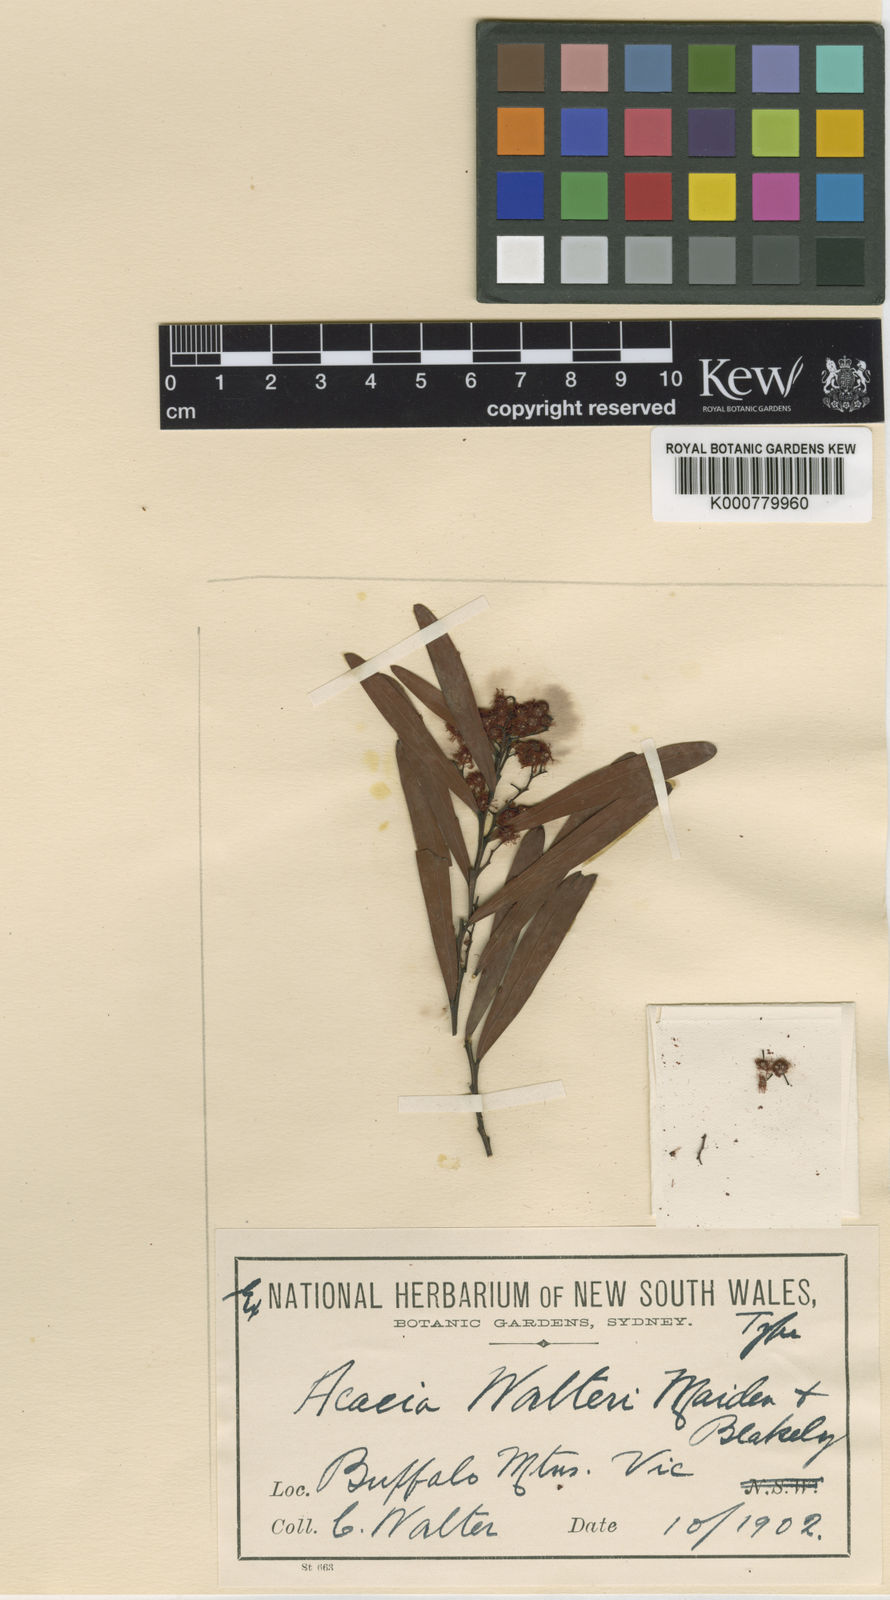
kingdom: Plantae
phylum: Tracheophyta
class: Magnoliopsida
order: Fabales
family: Fabaceae
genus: Acacia
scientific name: Acacia kettlewelliae
